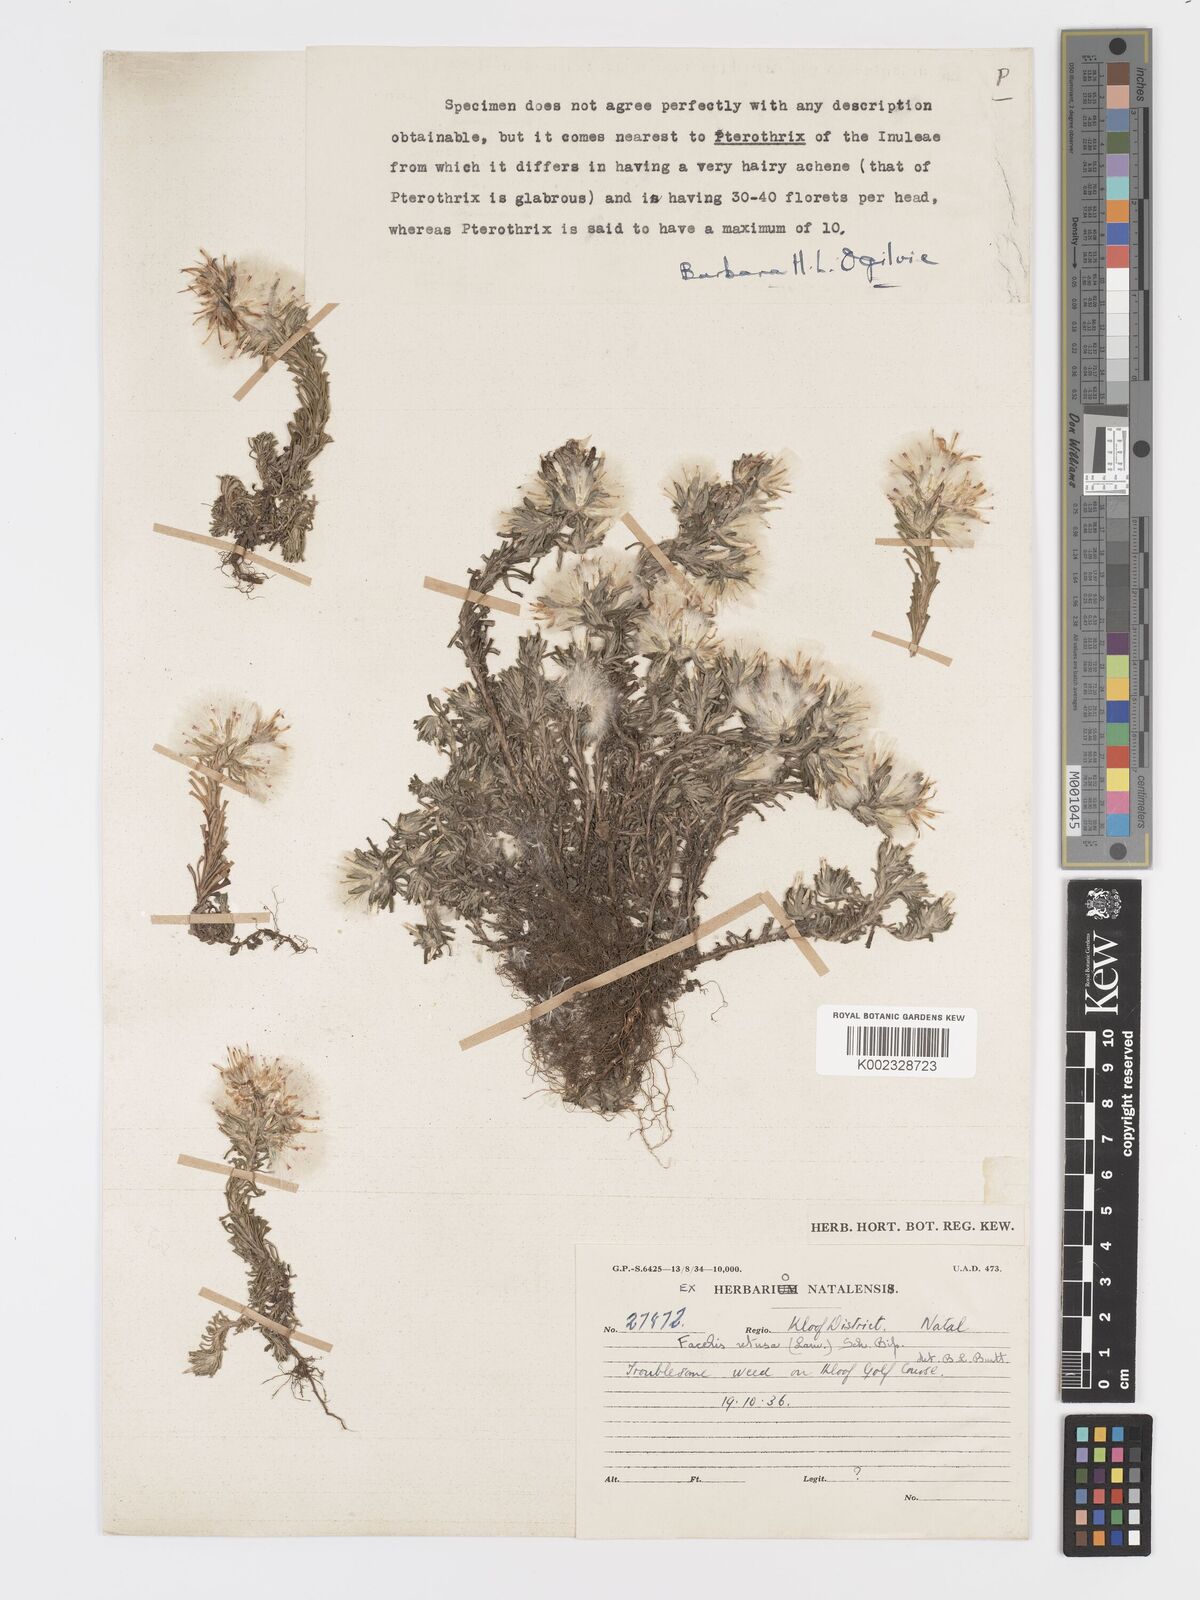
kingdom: Plantae
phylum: Tracheophyta
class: Magnoliopsida
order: Asterales
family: Asteraceae
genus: Facelis
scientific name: Facelis retusa
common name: Annual trampweed
